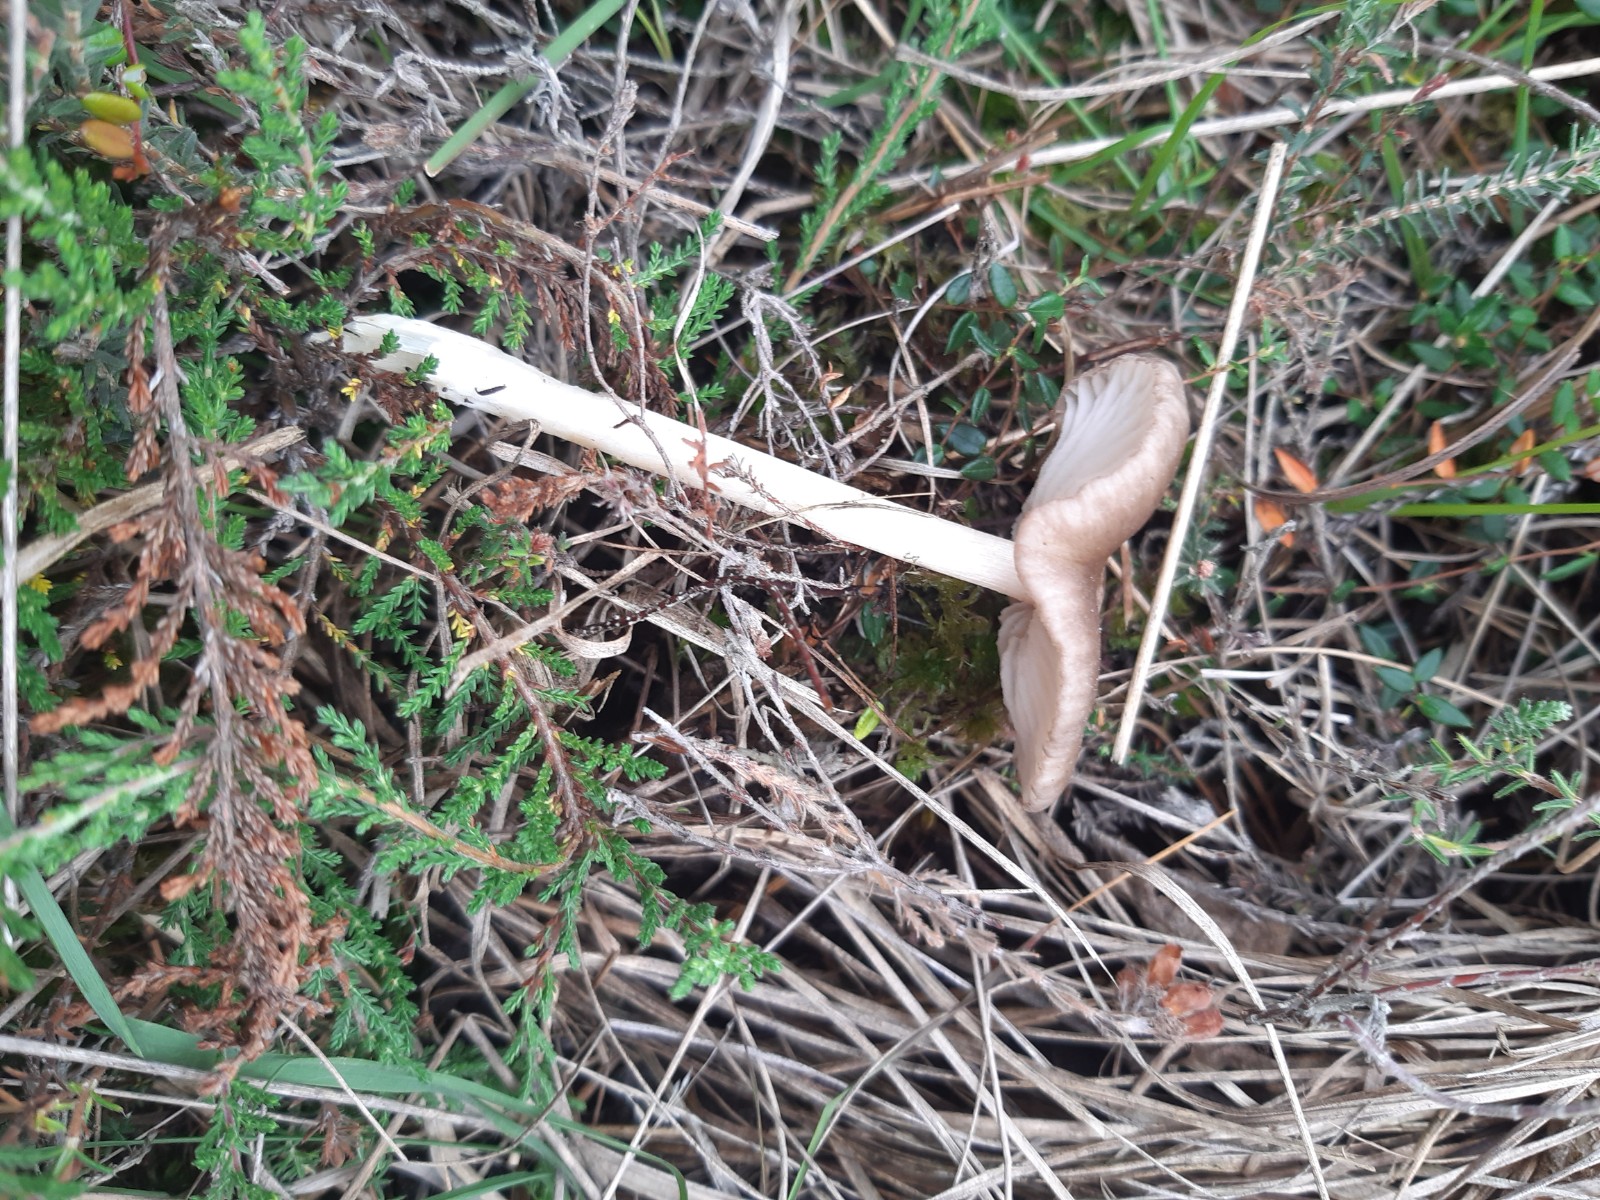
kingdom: Fungi
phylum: Basidiomycota
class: Agaricomycetes
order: Agaricales
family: Entolomataceae
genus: Entoloma
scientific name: Entoloma elodes
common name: mørkægget rødblad
